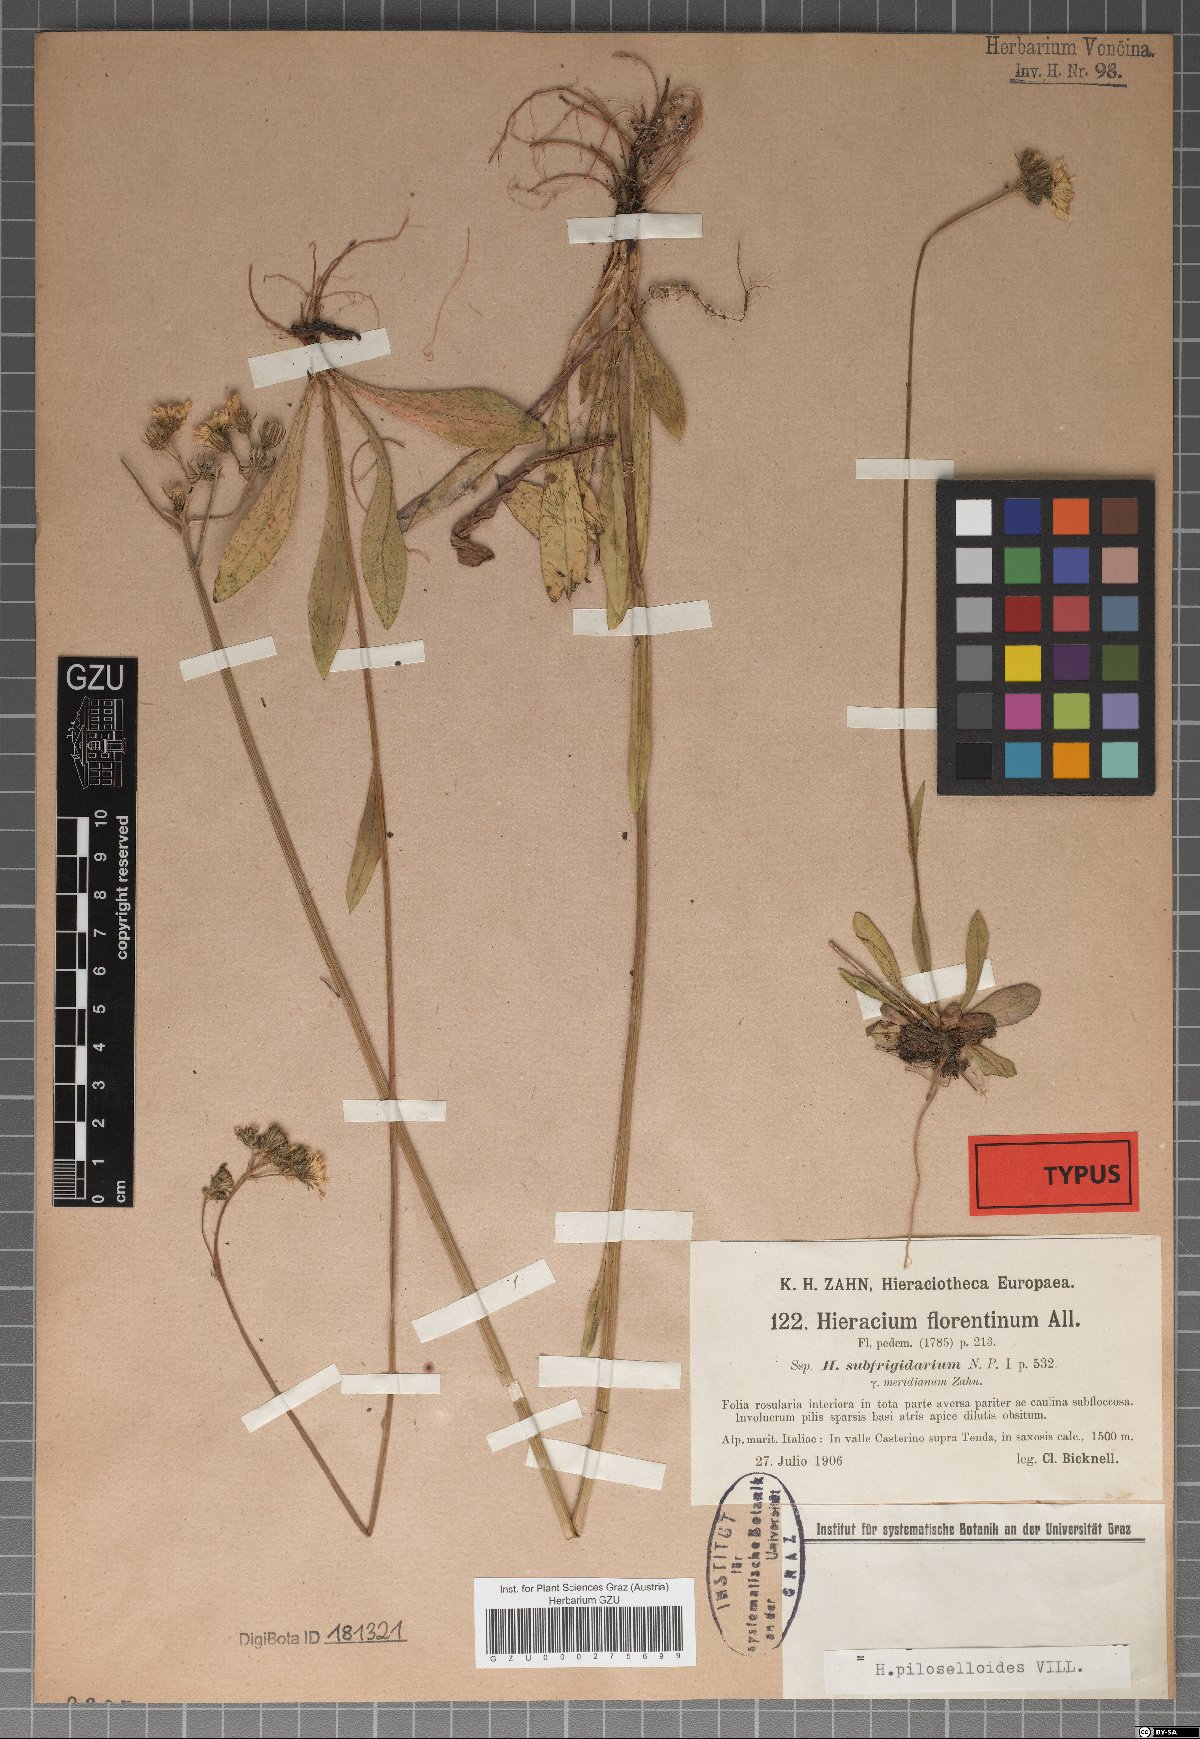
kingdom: Plantae
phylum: Tracheophyta
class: Magnoliopsida
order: Asterales
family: Asteraceae
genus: Hieracium
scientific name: Hieracium florentinum
